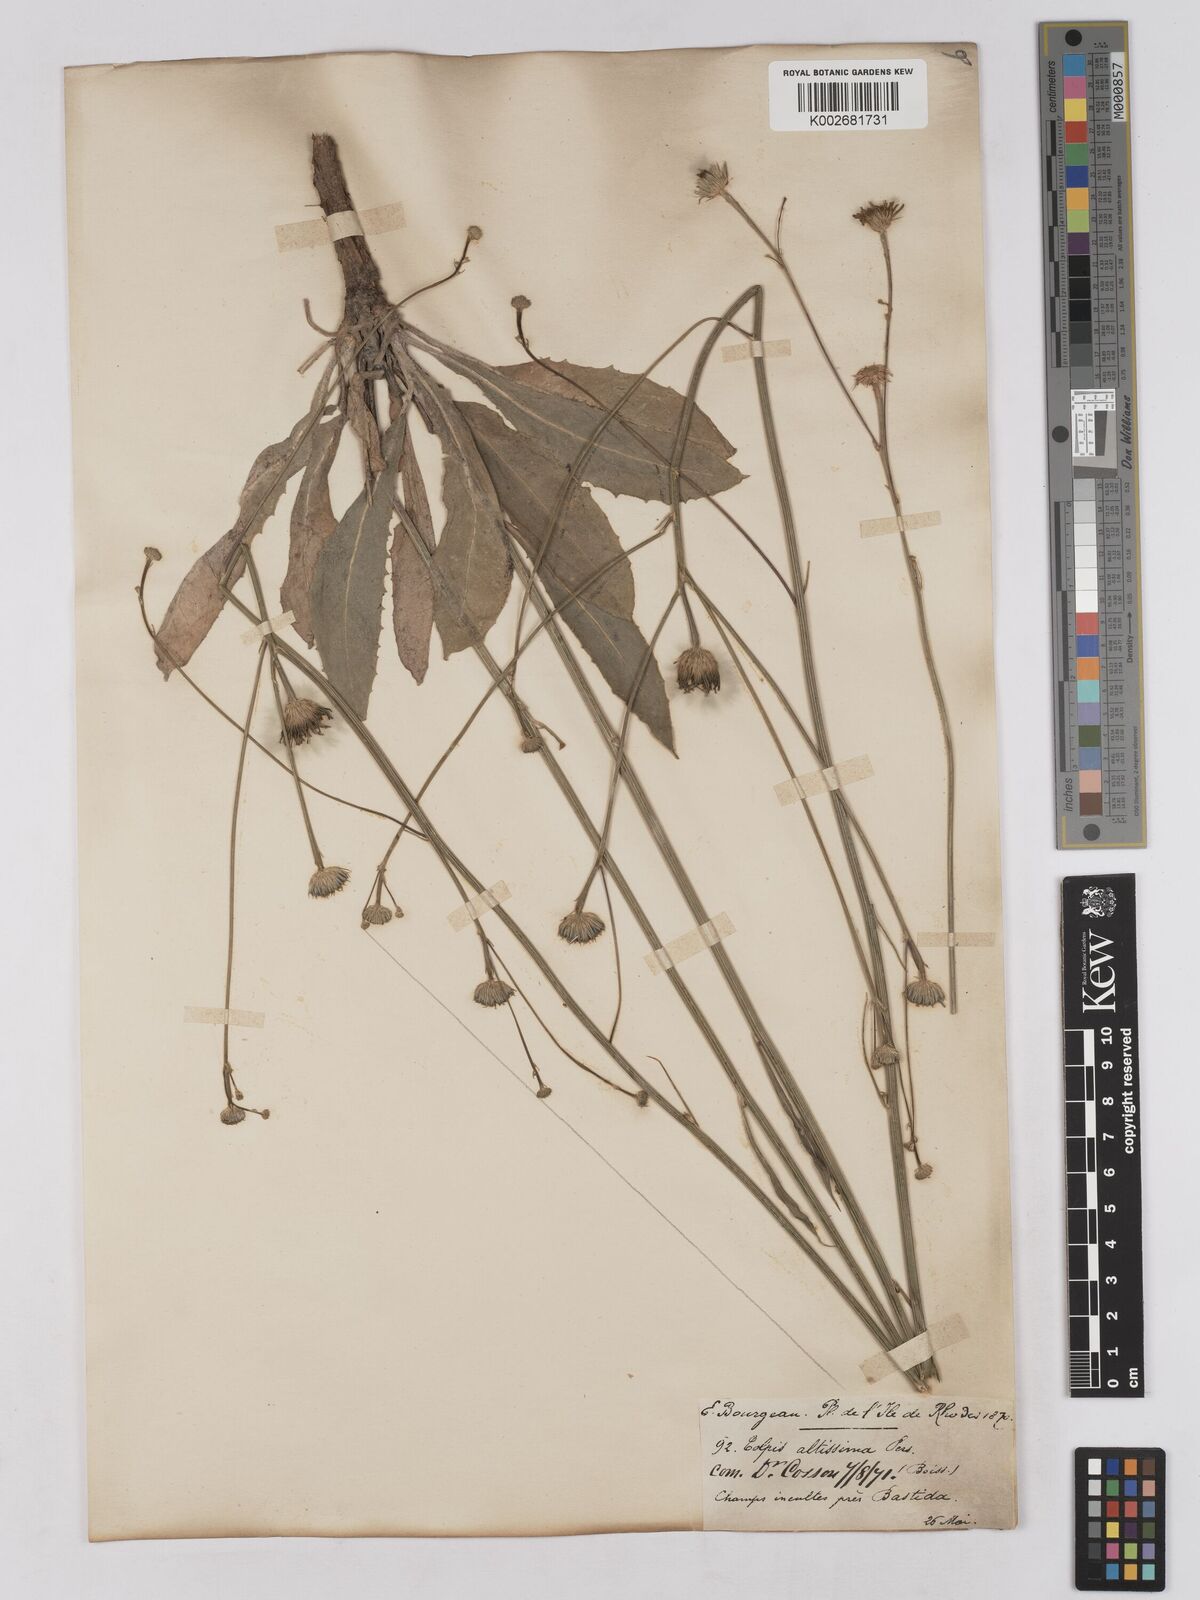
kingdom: Plantae
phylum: Tracheophyta
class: Magnoliopsida
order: Asterales
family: Asteraceae
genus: Tolpis
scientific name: Tolpis virgata
